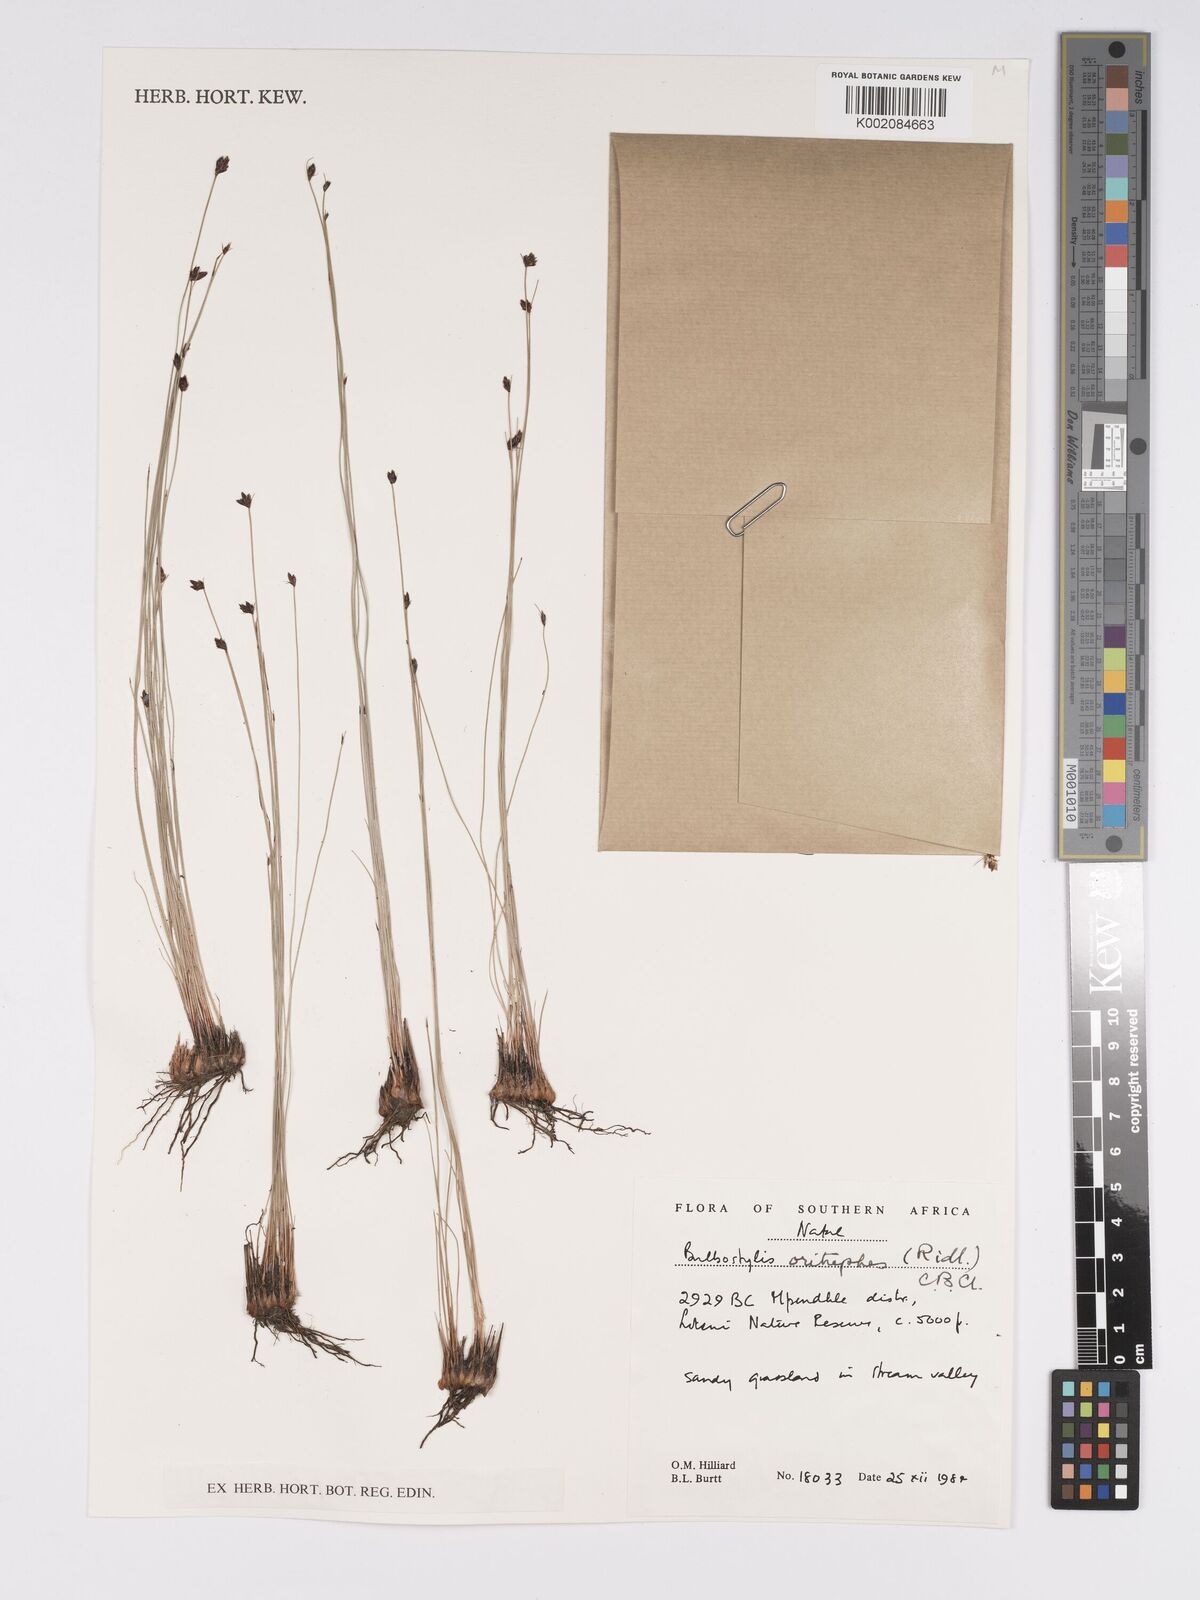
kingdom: Plantae
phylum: Tracheophyta
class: Liliopsida
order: Poales
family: Cyperaceae
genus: Bulbostylis
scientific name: Bulbostylis oritrephes
